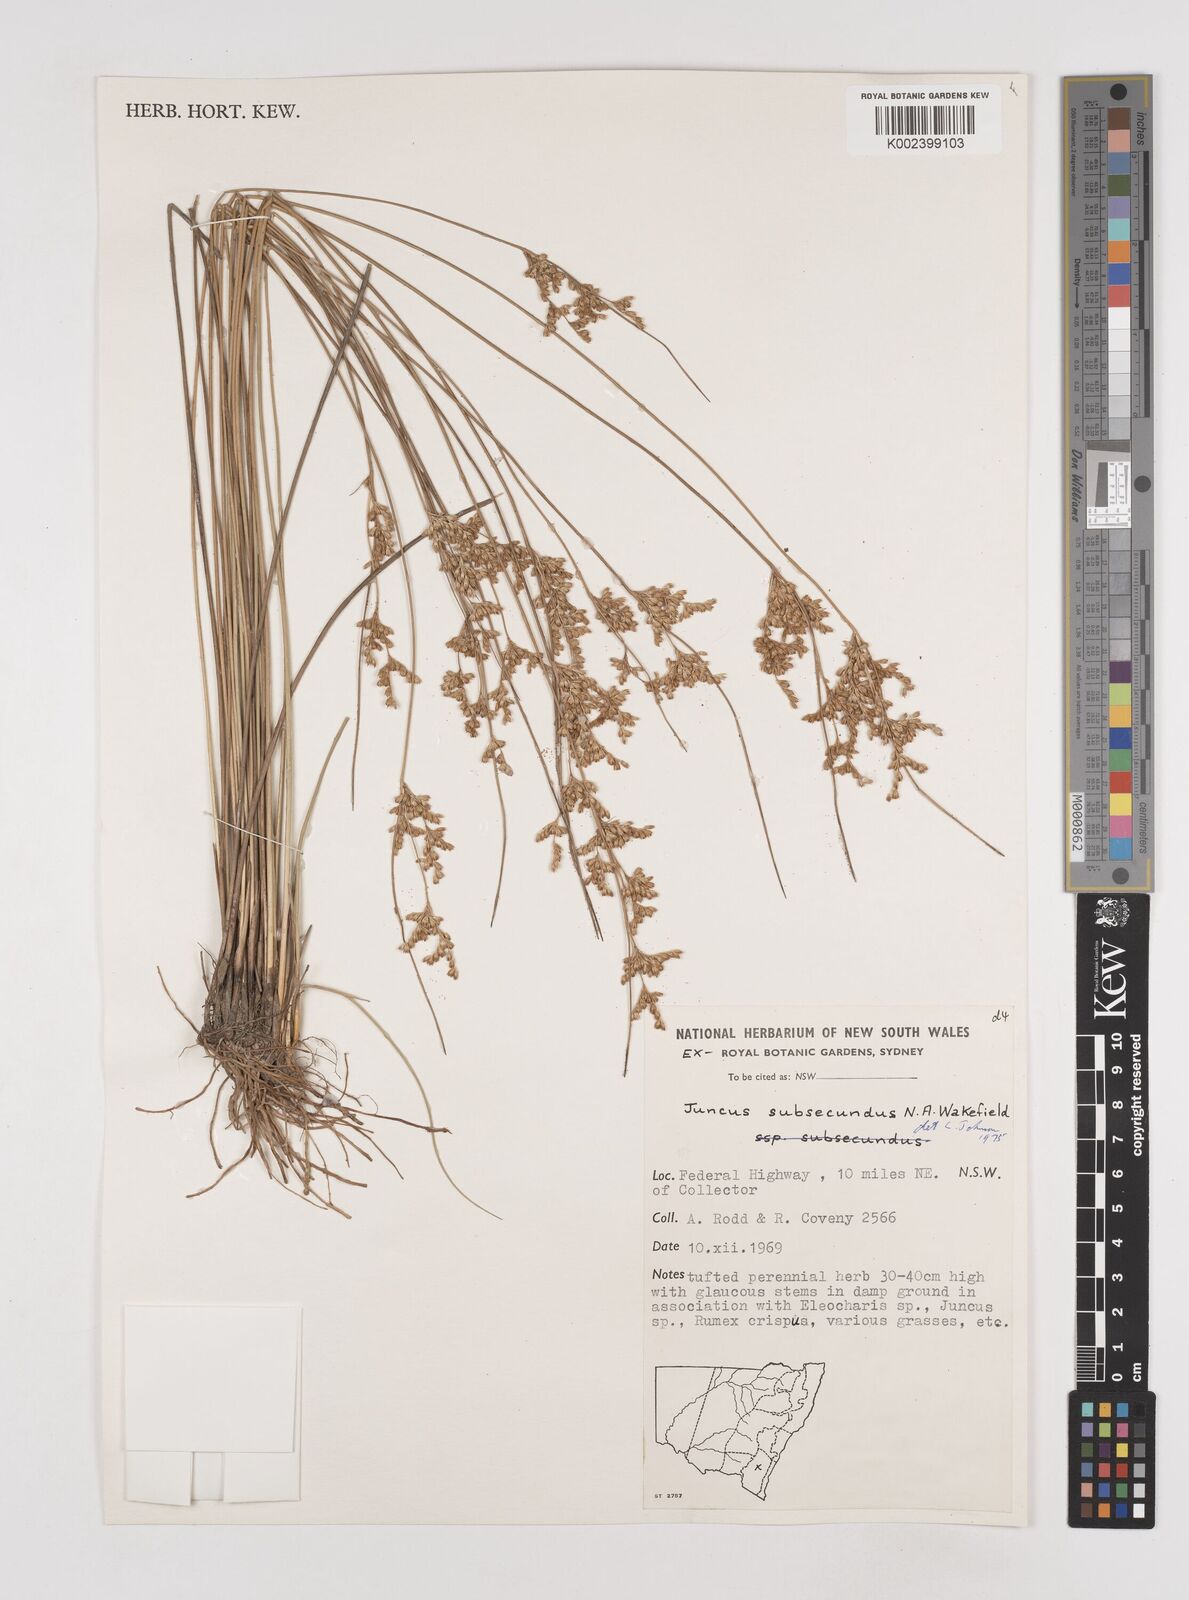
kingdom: Plantae
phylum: Tracheophyta
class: Liliopsida
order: Poales
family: Juncaceae
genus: Juncus
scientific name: Juncus subsecundus
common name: Fingered rush
